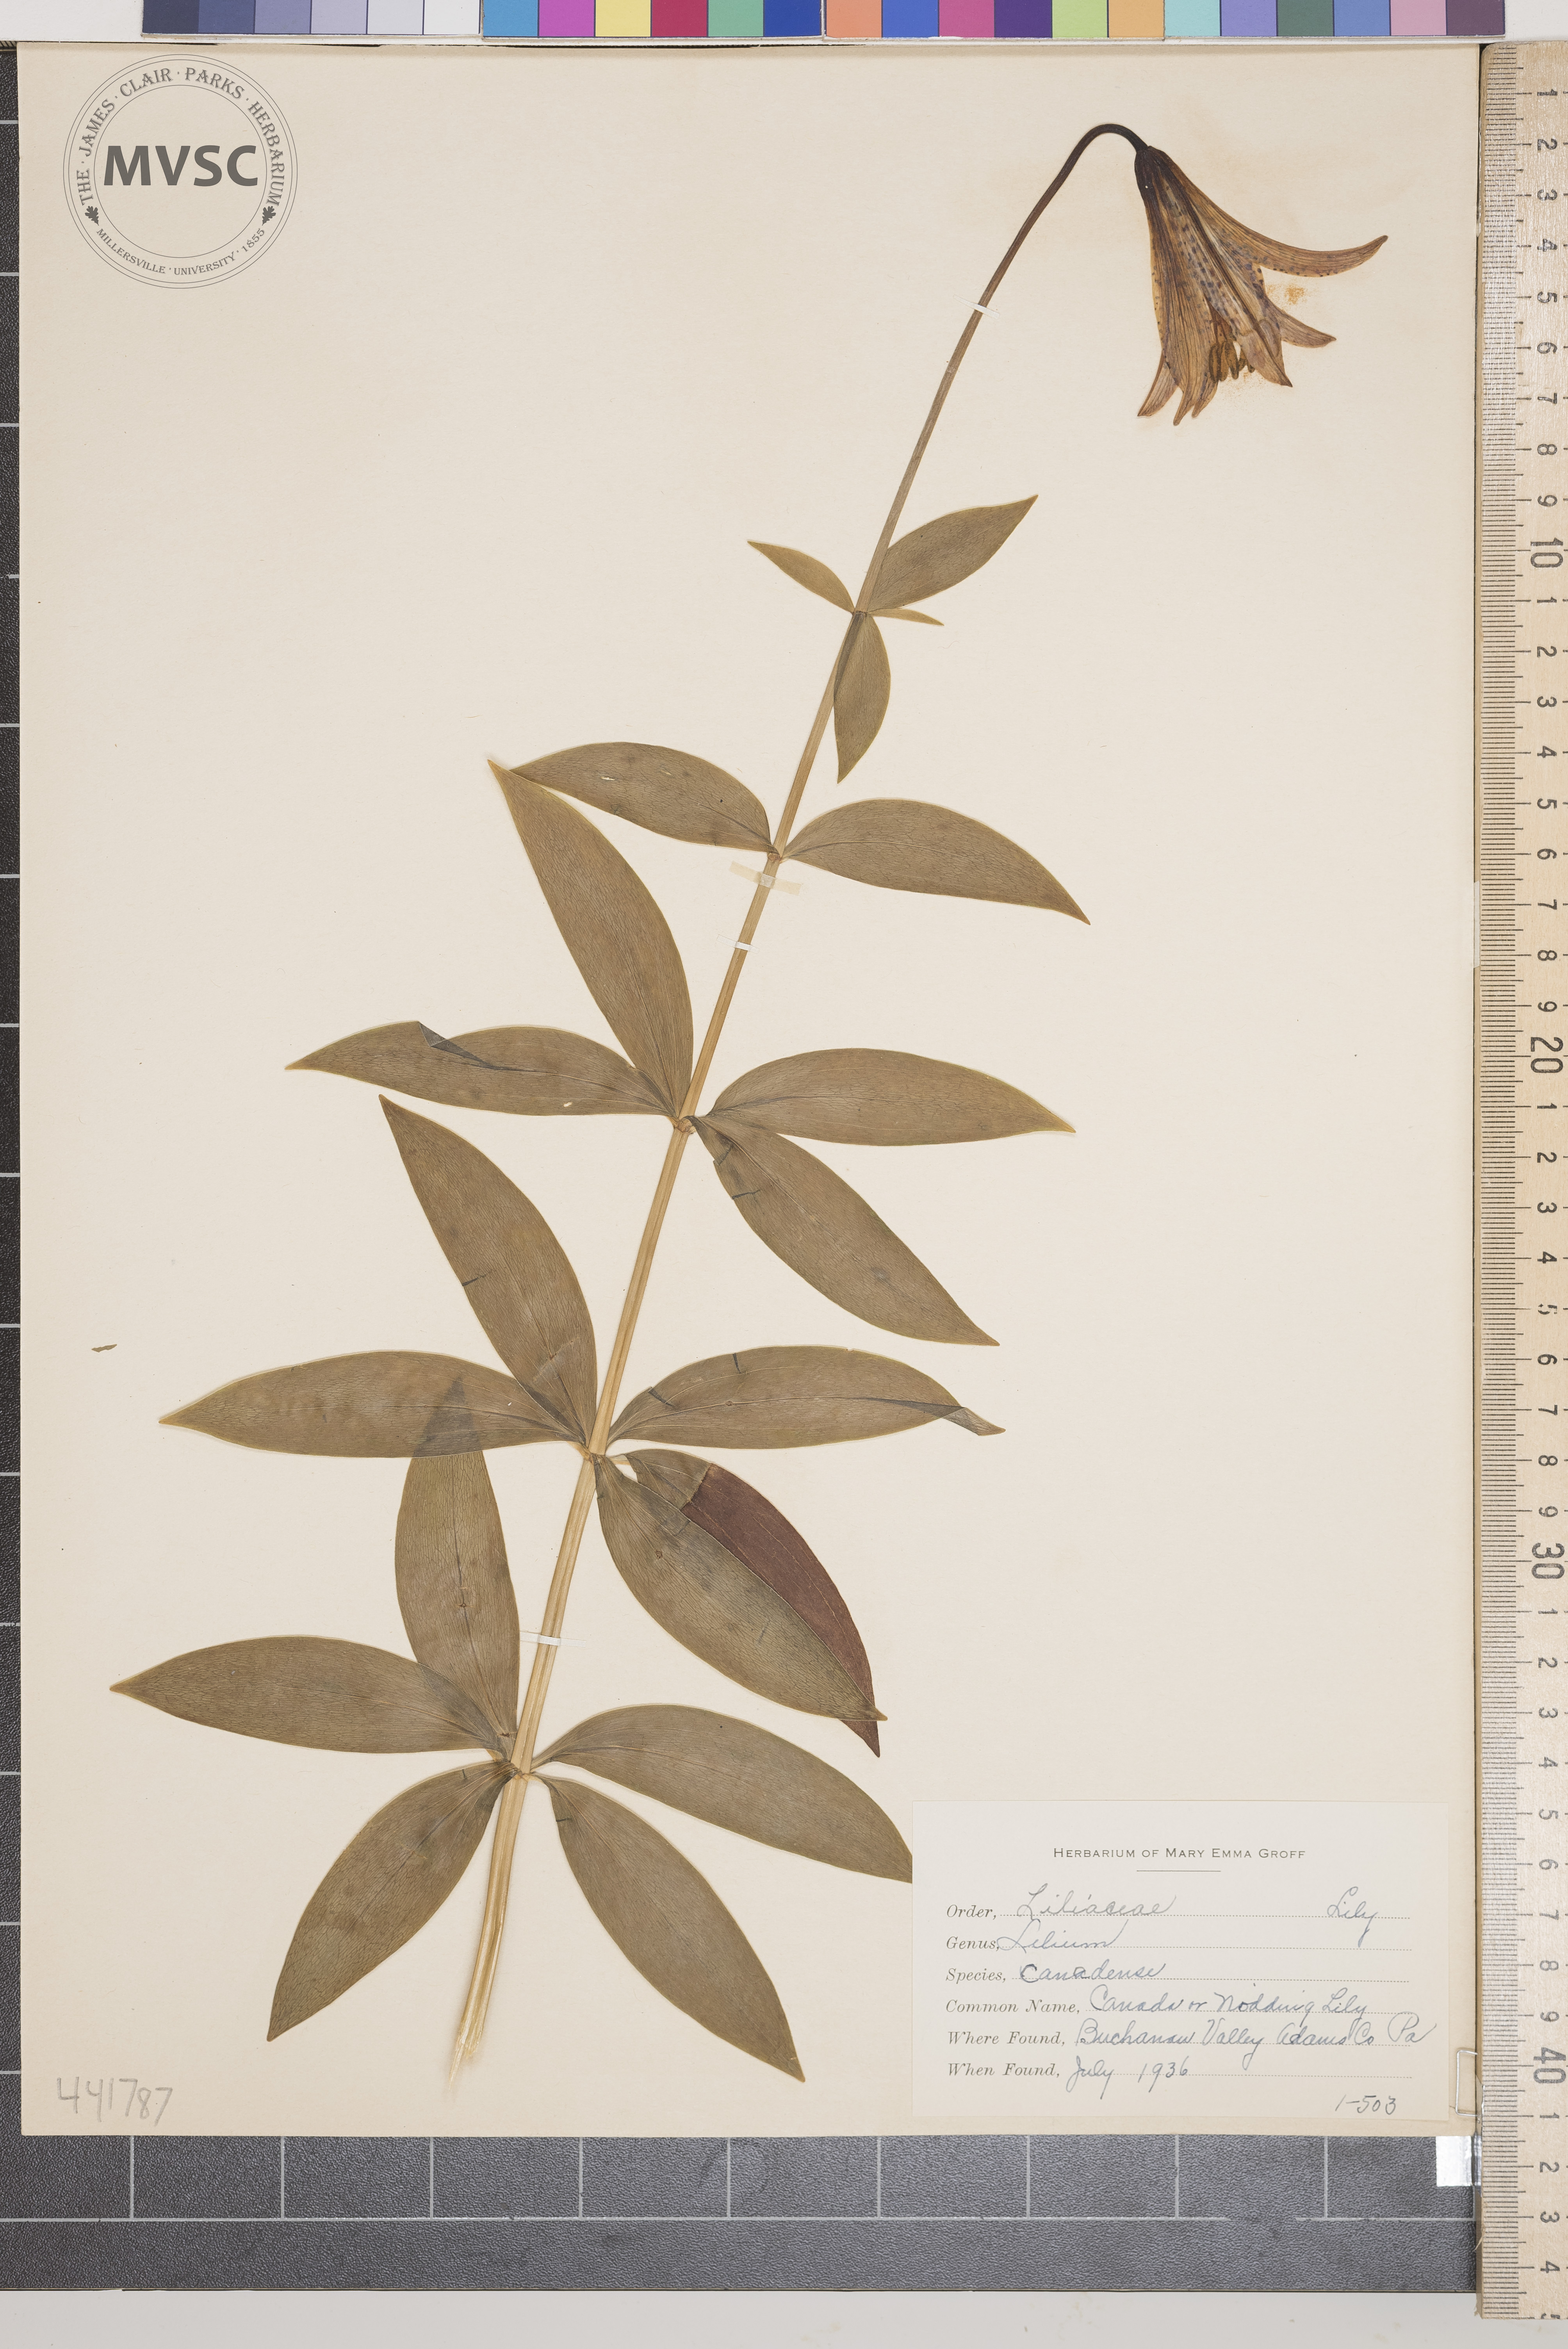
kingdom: Plantae
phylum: Tracheophyta
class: Liliopsida
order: Liliales
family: Liliaceae
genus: Lilium
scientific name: Lilium canadense
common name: Canada lily
